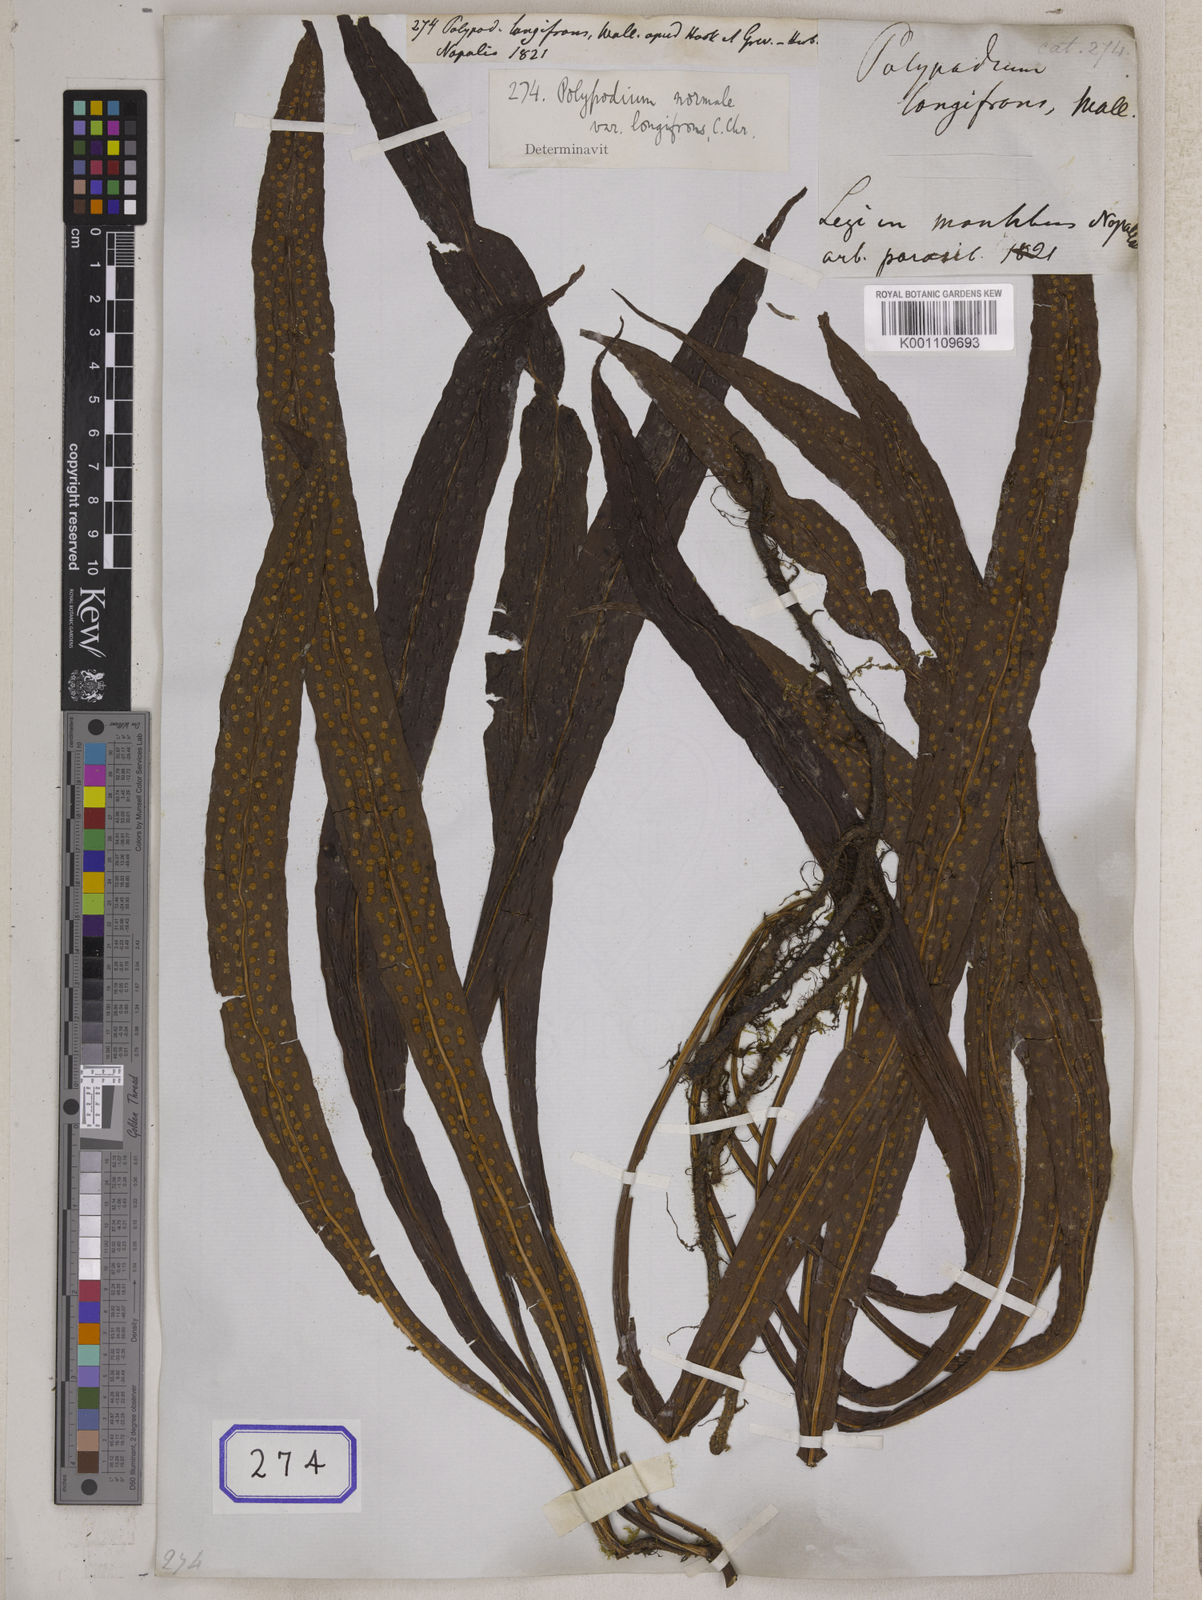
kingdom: Plantae
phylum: Tracheophyta
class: Polypodiopsida
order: Polypodiales
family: Polypodiaceae
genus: Lepisorus
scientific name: Lepisorus normalis
